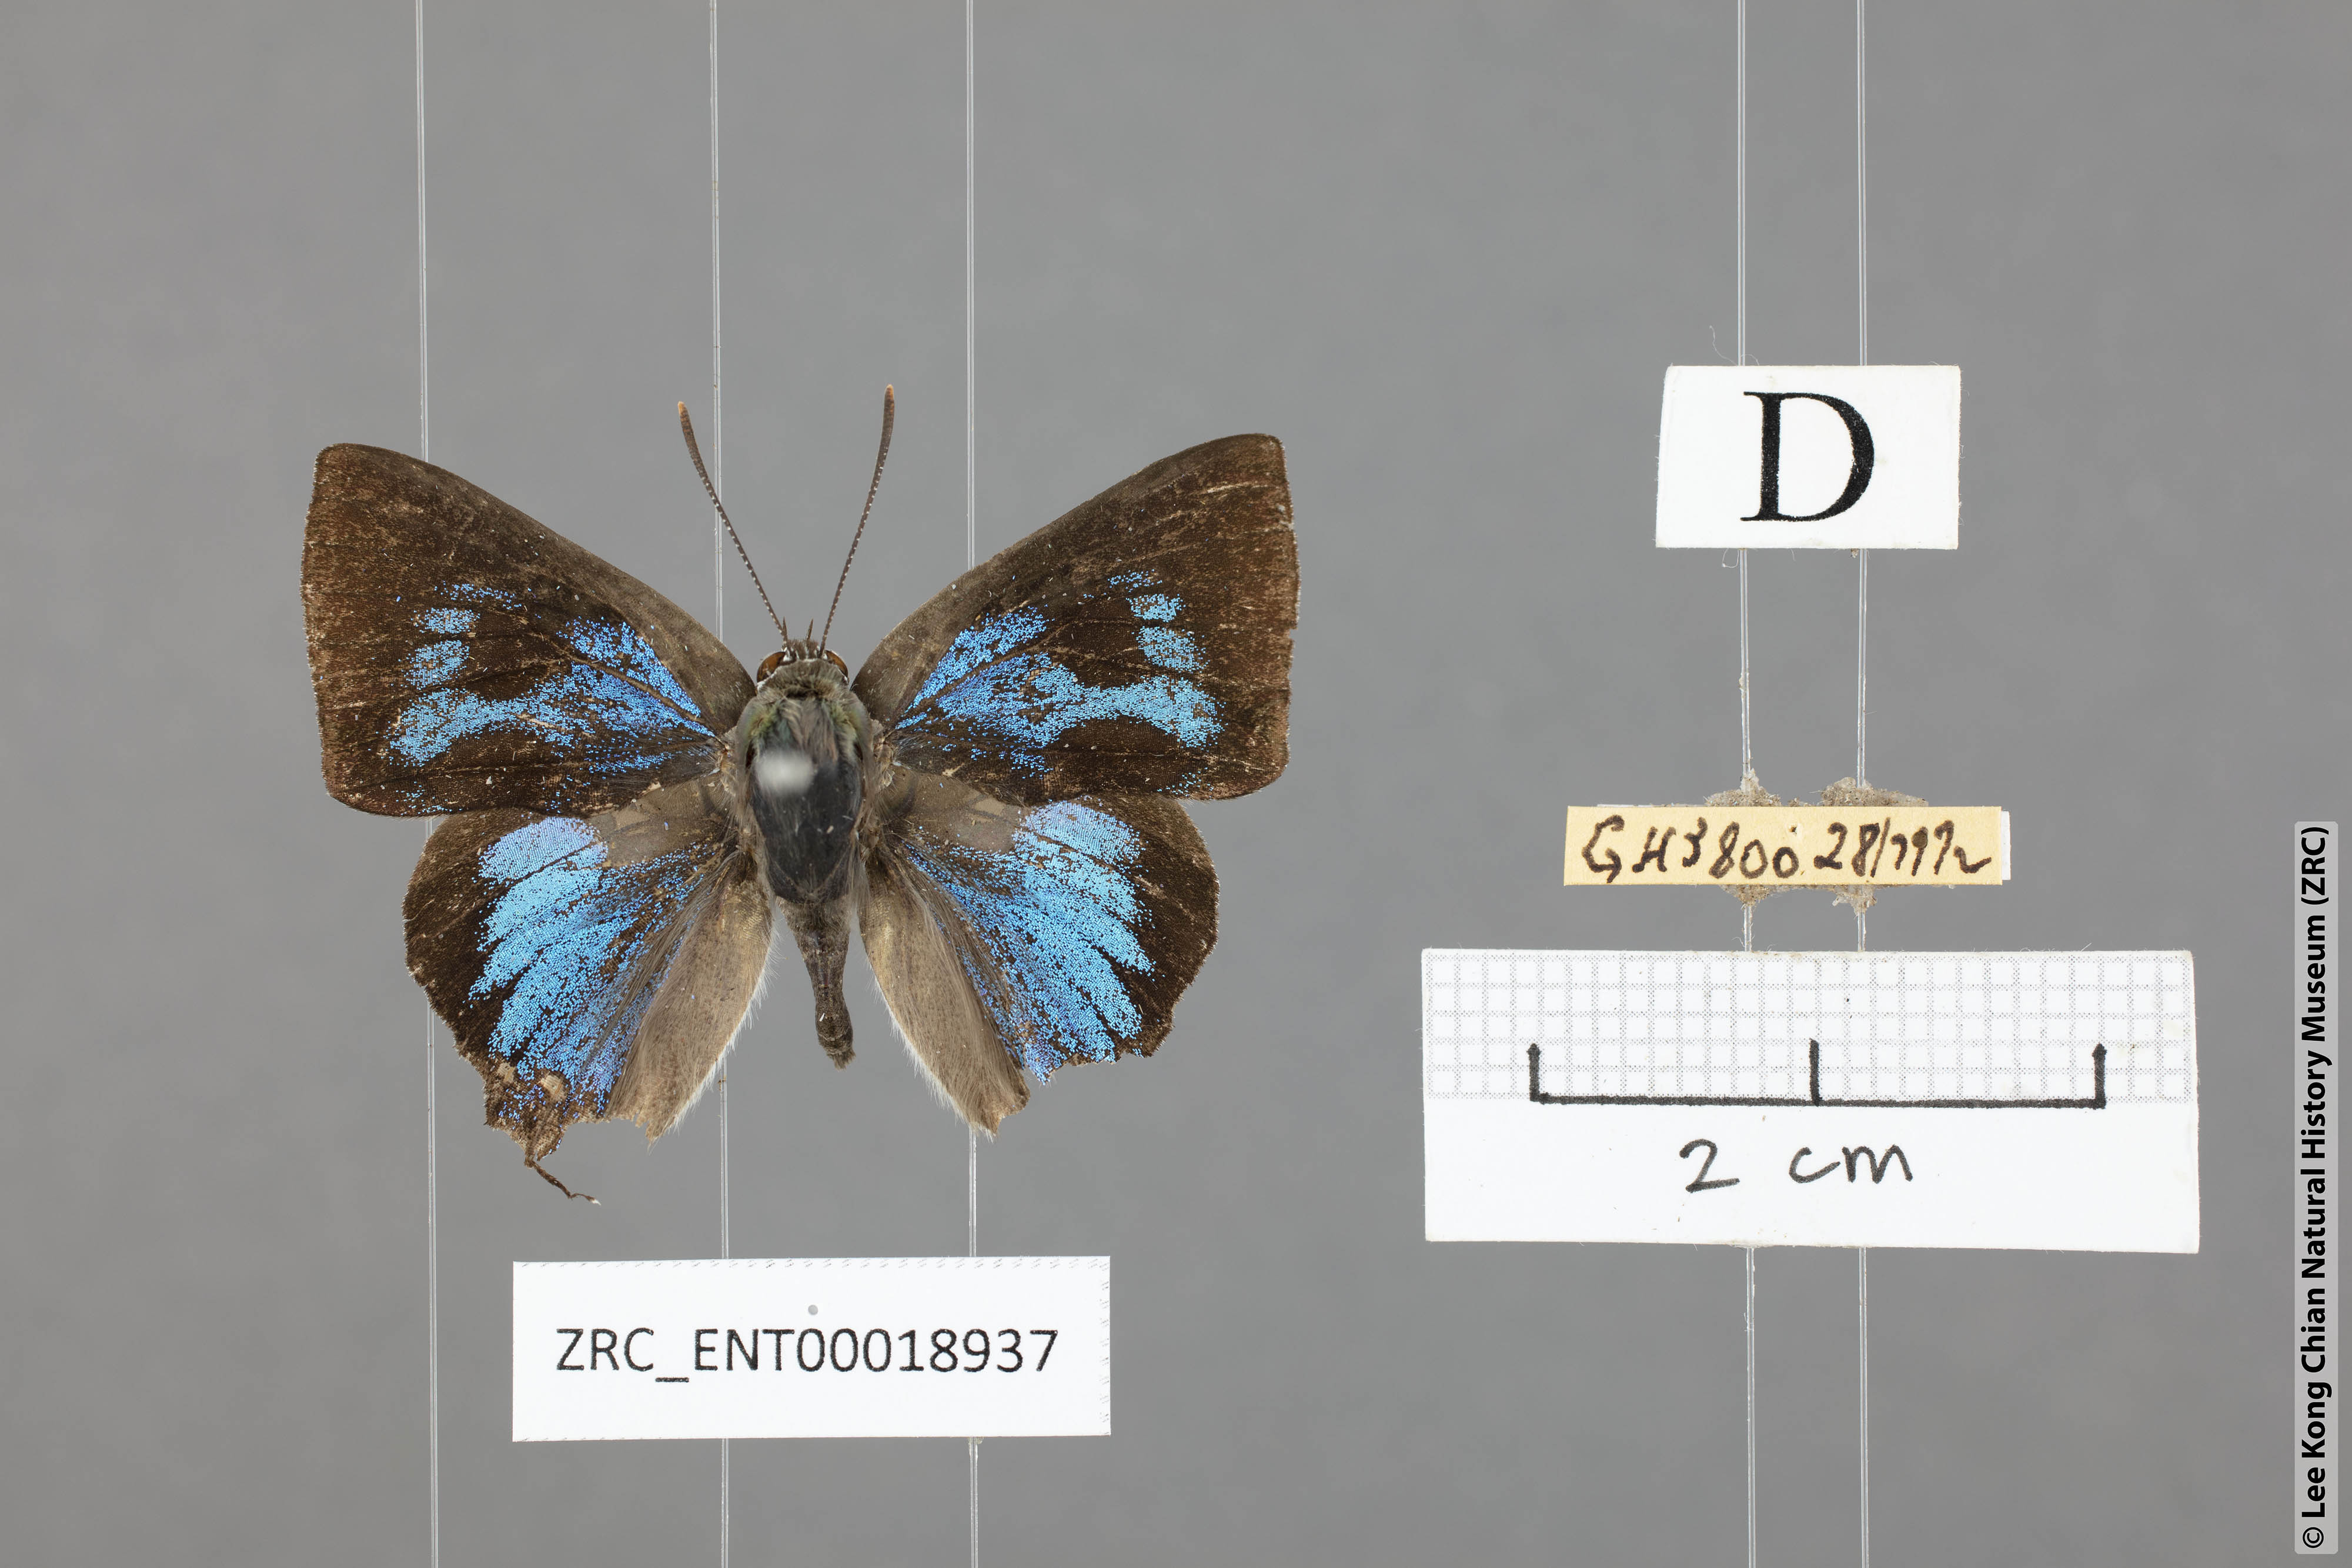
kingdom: Animalia
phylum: Arthropoda
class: Insecta
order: Lepidoptera
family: Lycaenidae
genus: Ancema
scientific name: Ancema ctesia
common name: Bi-spot royal
